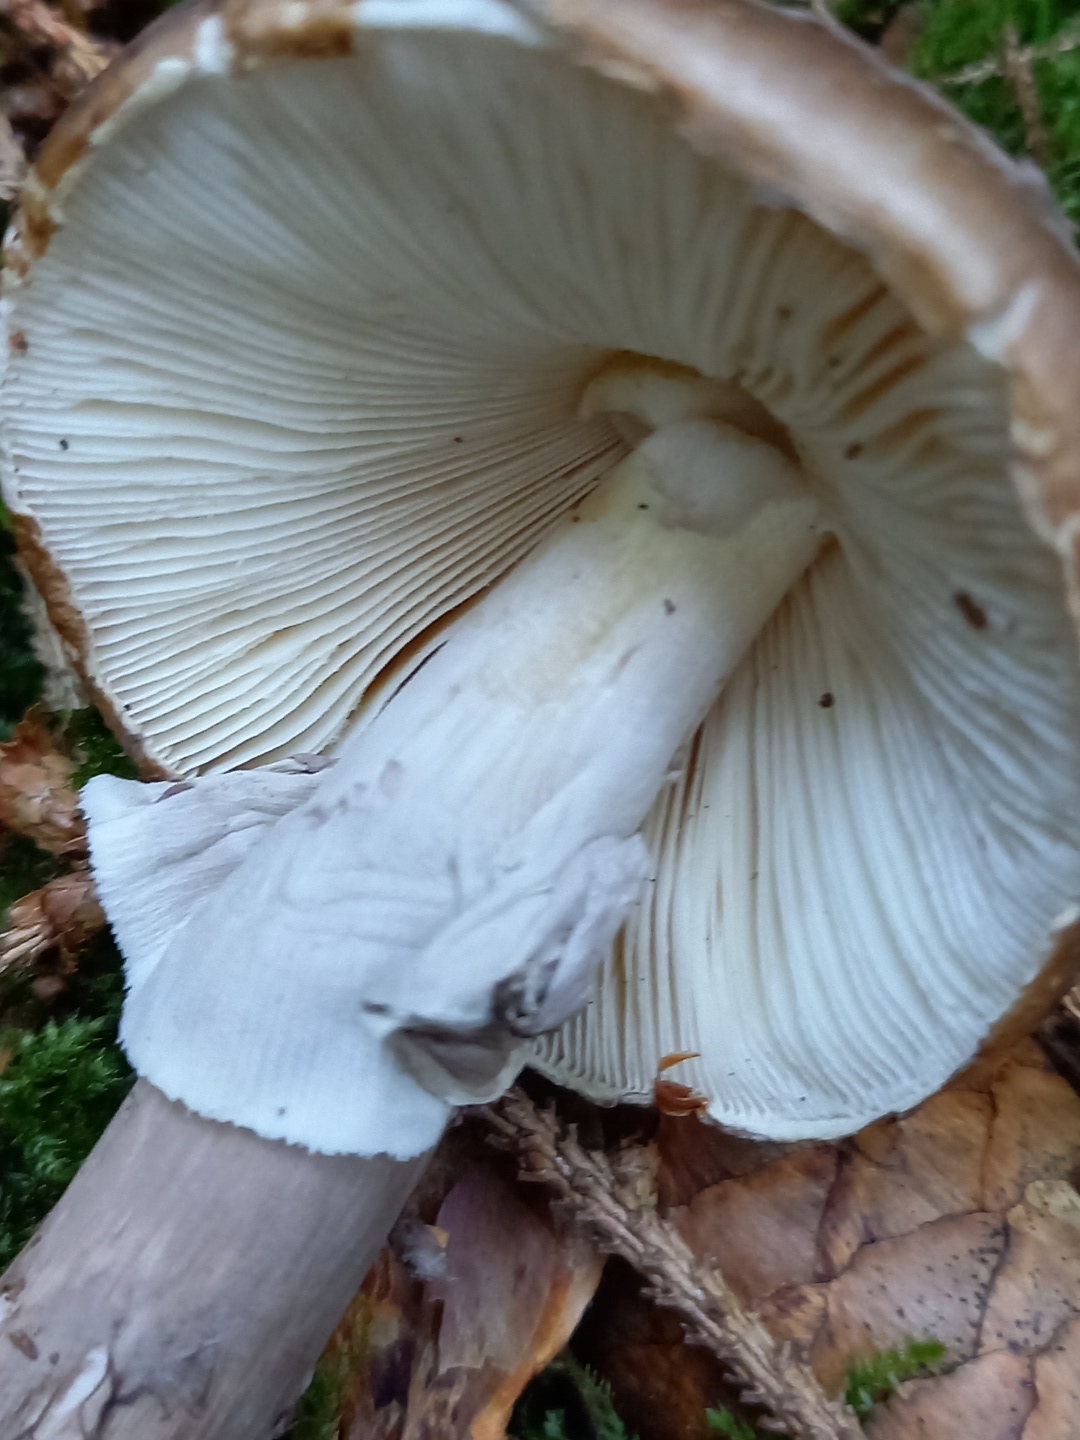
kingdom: Fungi
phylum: Basidiomycota
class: Agaricomycetes
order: Agaricales
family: Amanitaceae
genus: Amanita
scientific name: Amanita porphyria
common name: porfyr-fluesvamp
